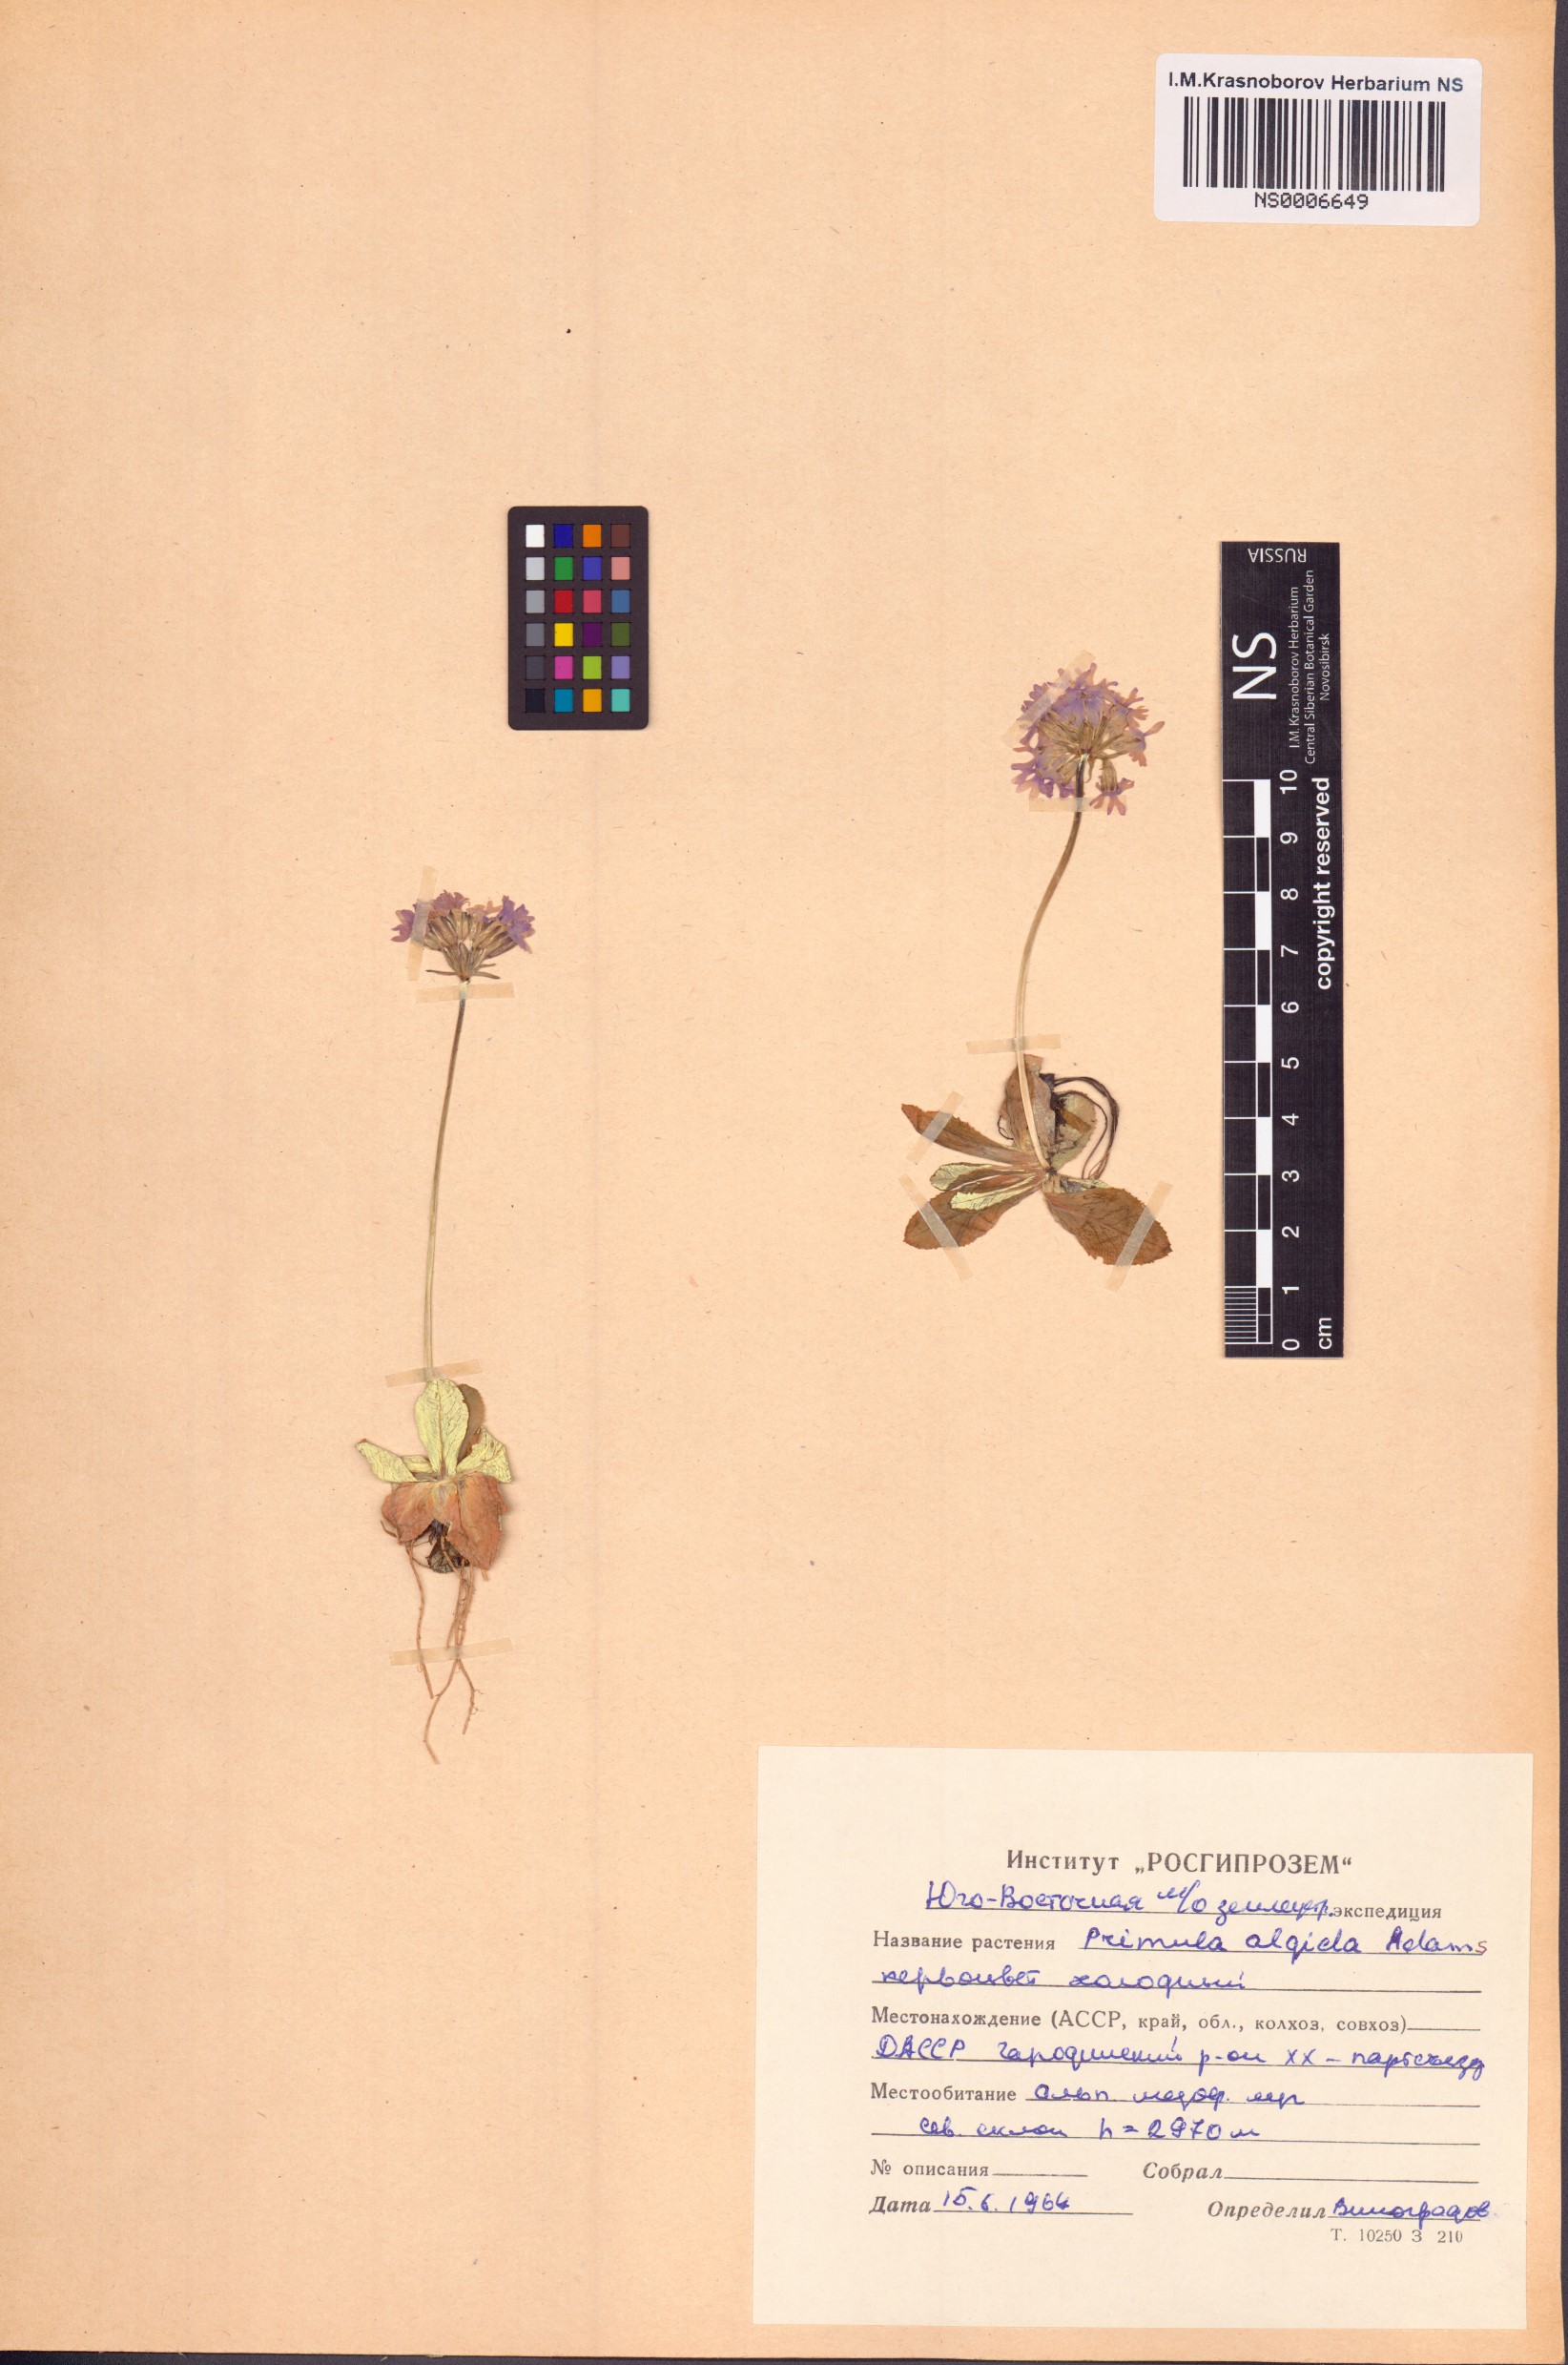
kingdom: Plantae
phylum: Tracheophyta
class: Magnoliopsida
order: Ericales
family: Primulaceae
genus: Primula
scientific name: Primula algida
